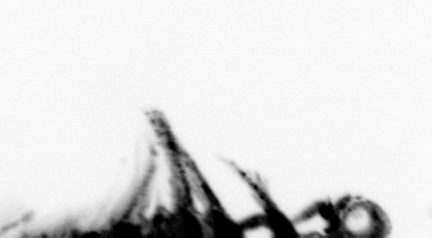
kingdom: Animalia
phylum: Annelida
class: Polychaeta
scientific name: Polychaeta
